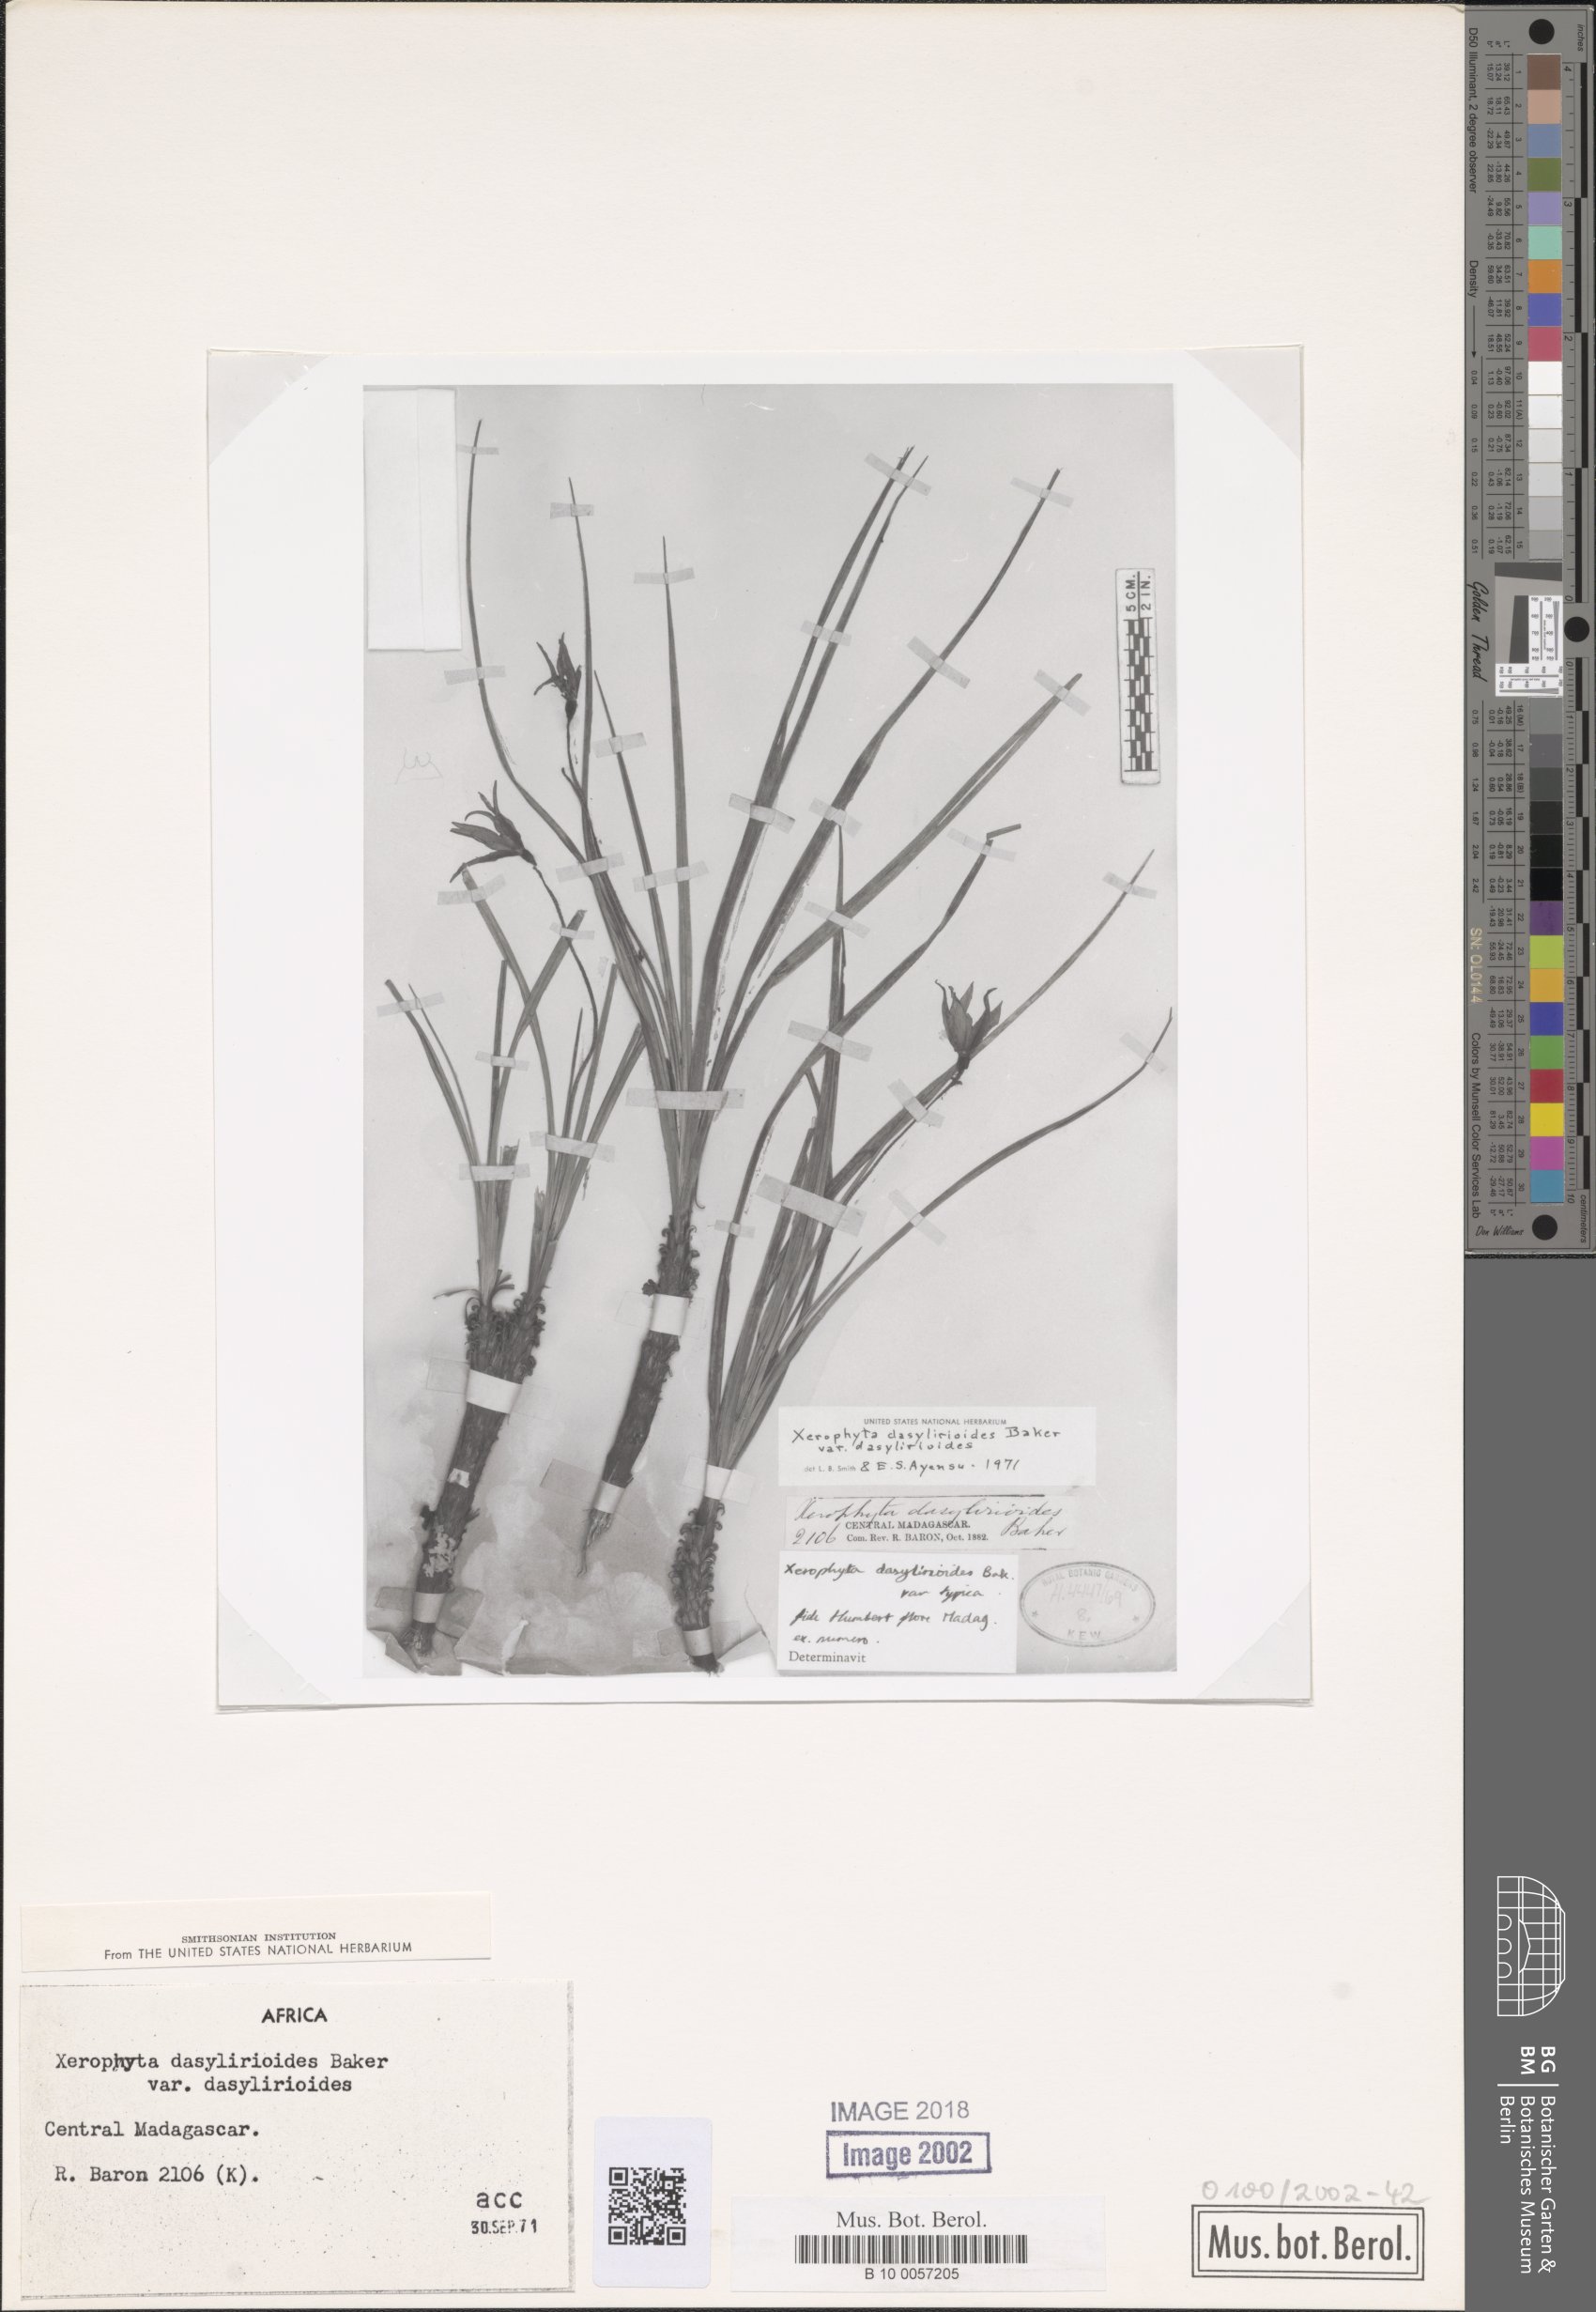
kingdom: Plantae
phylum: Tracheophyta
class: Liliopsida
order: Pandanales
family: Velloziaceae
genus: Xerophyta
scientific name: Xerophyta dasylirioides
